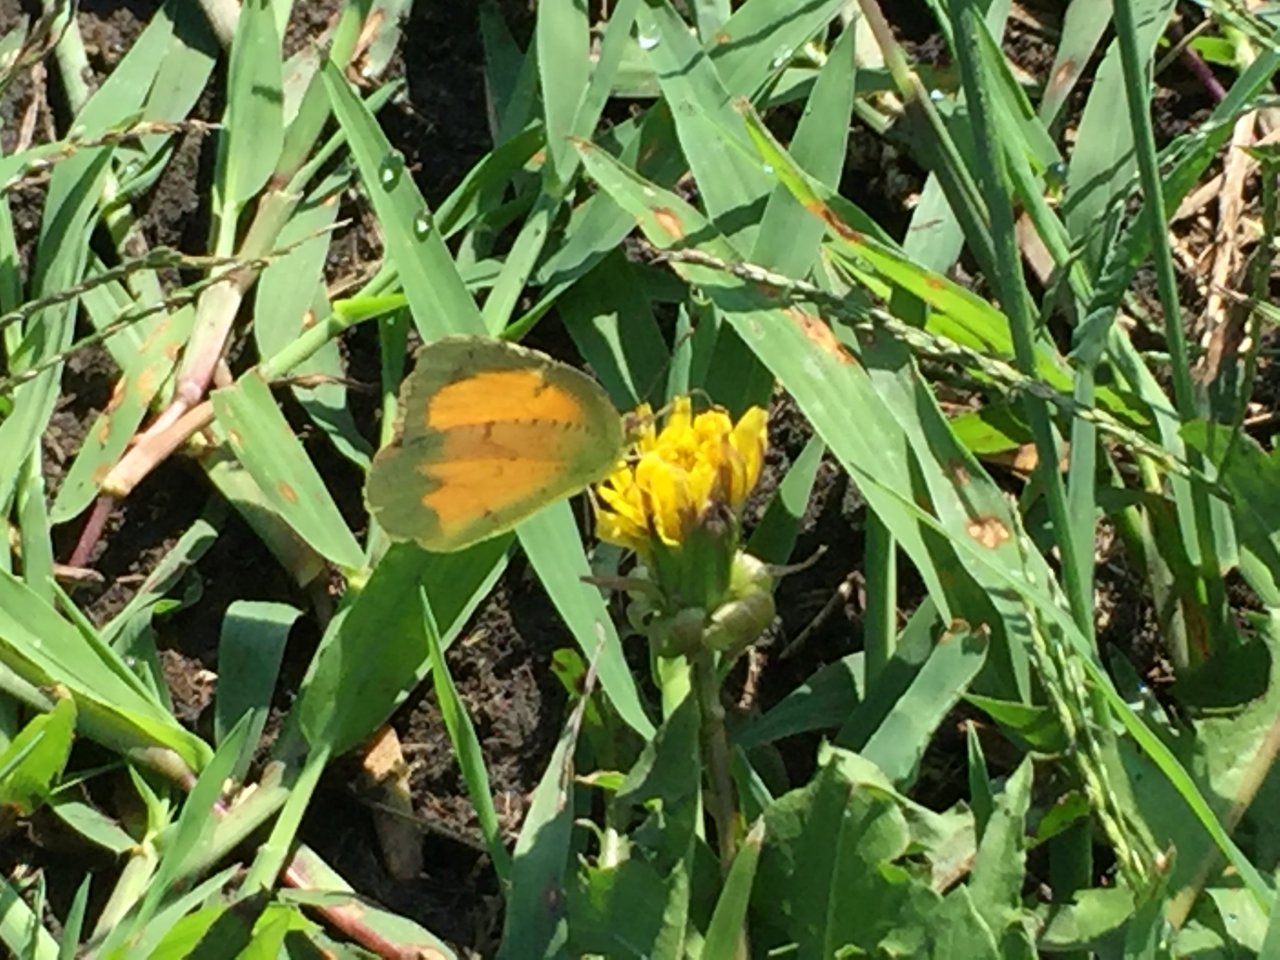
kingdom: Animalia
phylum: Arthropoda
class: Insecta
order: Lepidoptera
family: Pieridae
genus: Abaeis
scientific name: Abaeis nicippe
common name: Sleepy Orange
